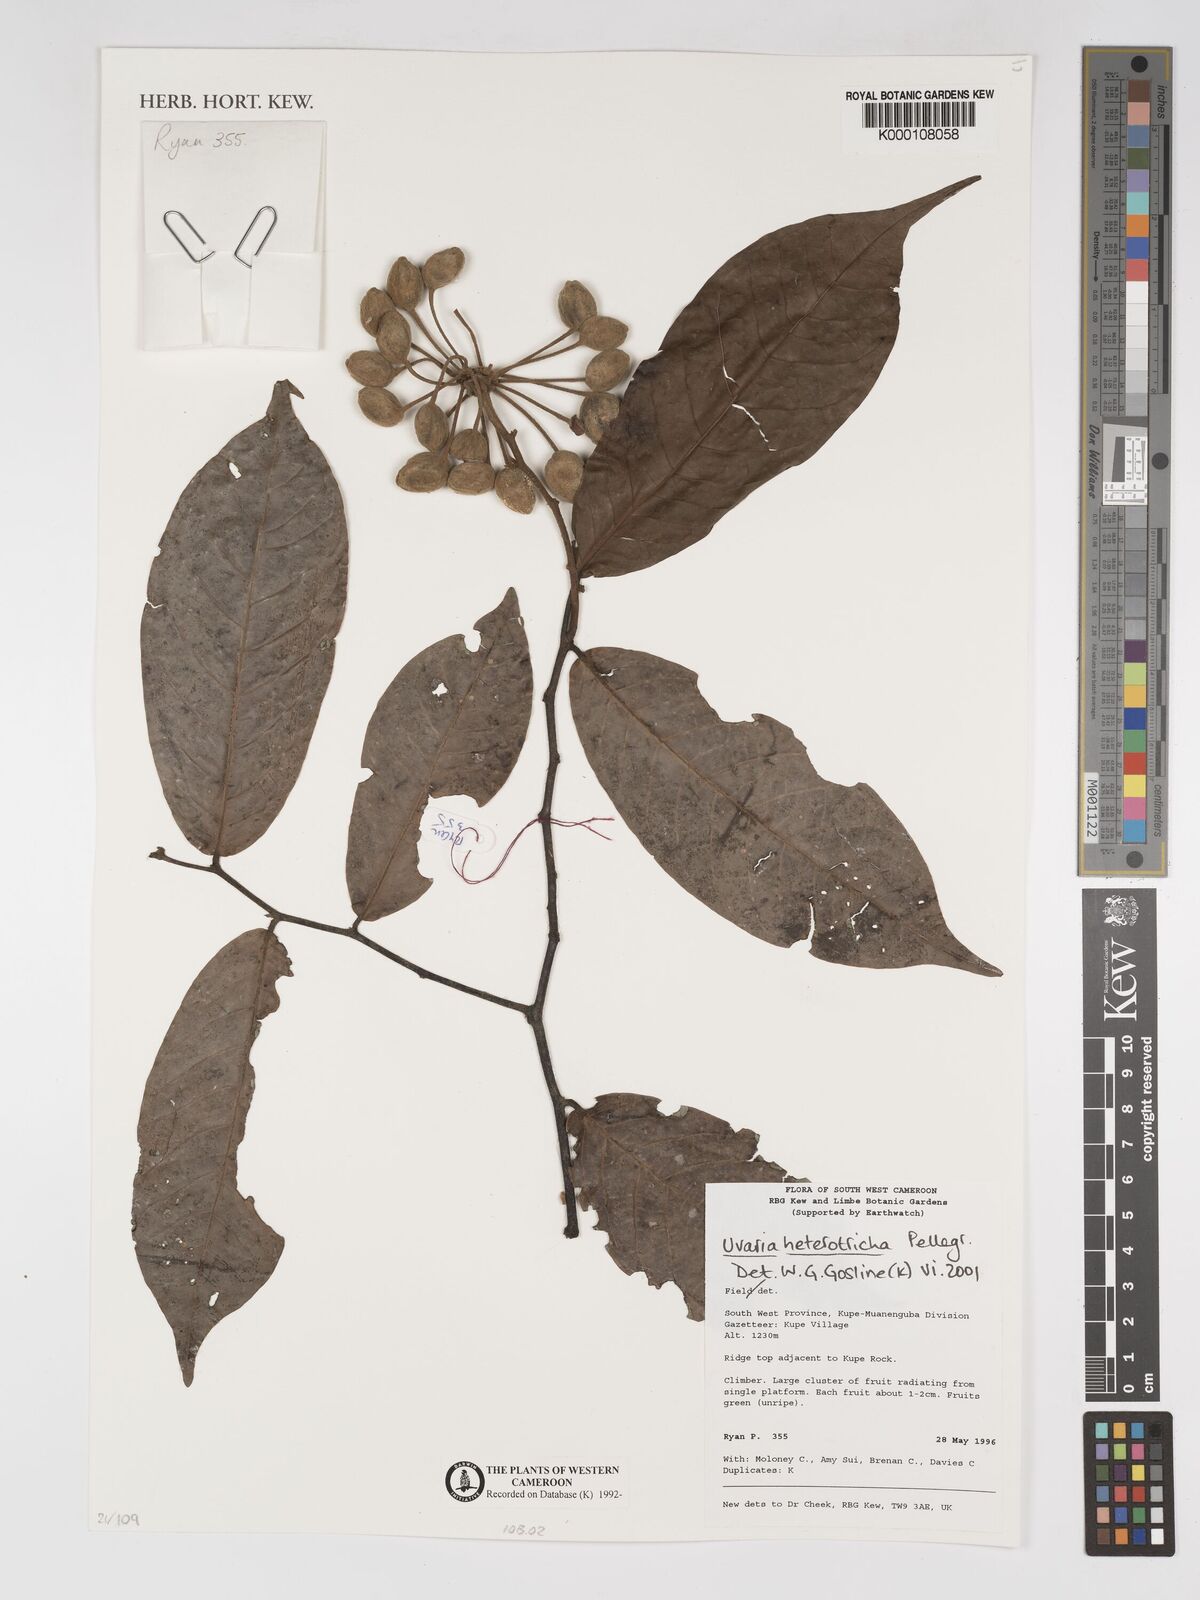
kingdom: Plantae
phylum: Tracheophyta
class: Magnoliopsida
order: Magnoliales
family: Annonaceae
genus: Uvaria
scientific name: Uvaria heterotricha
